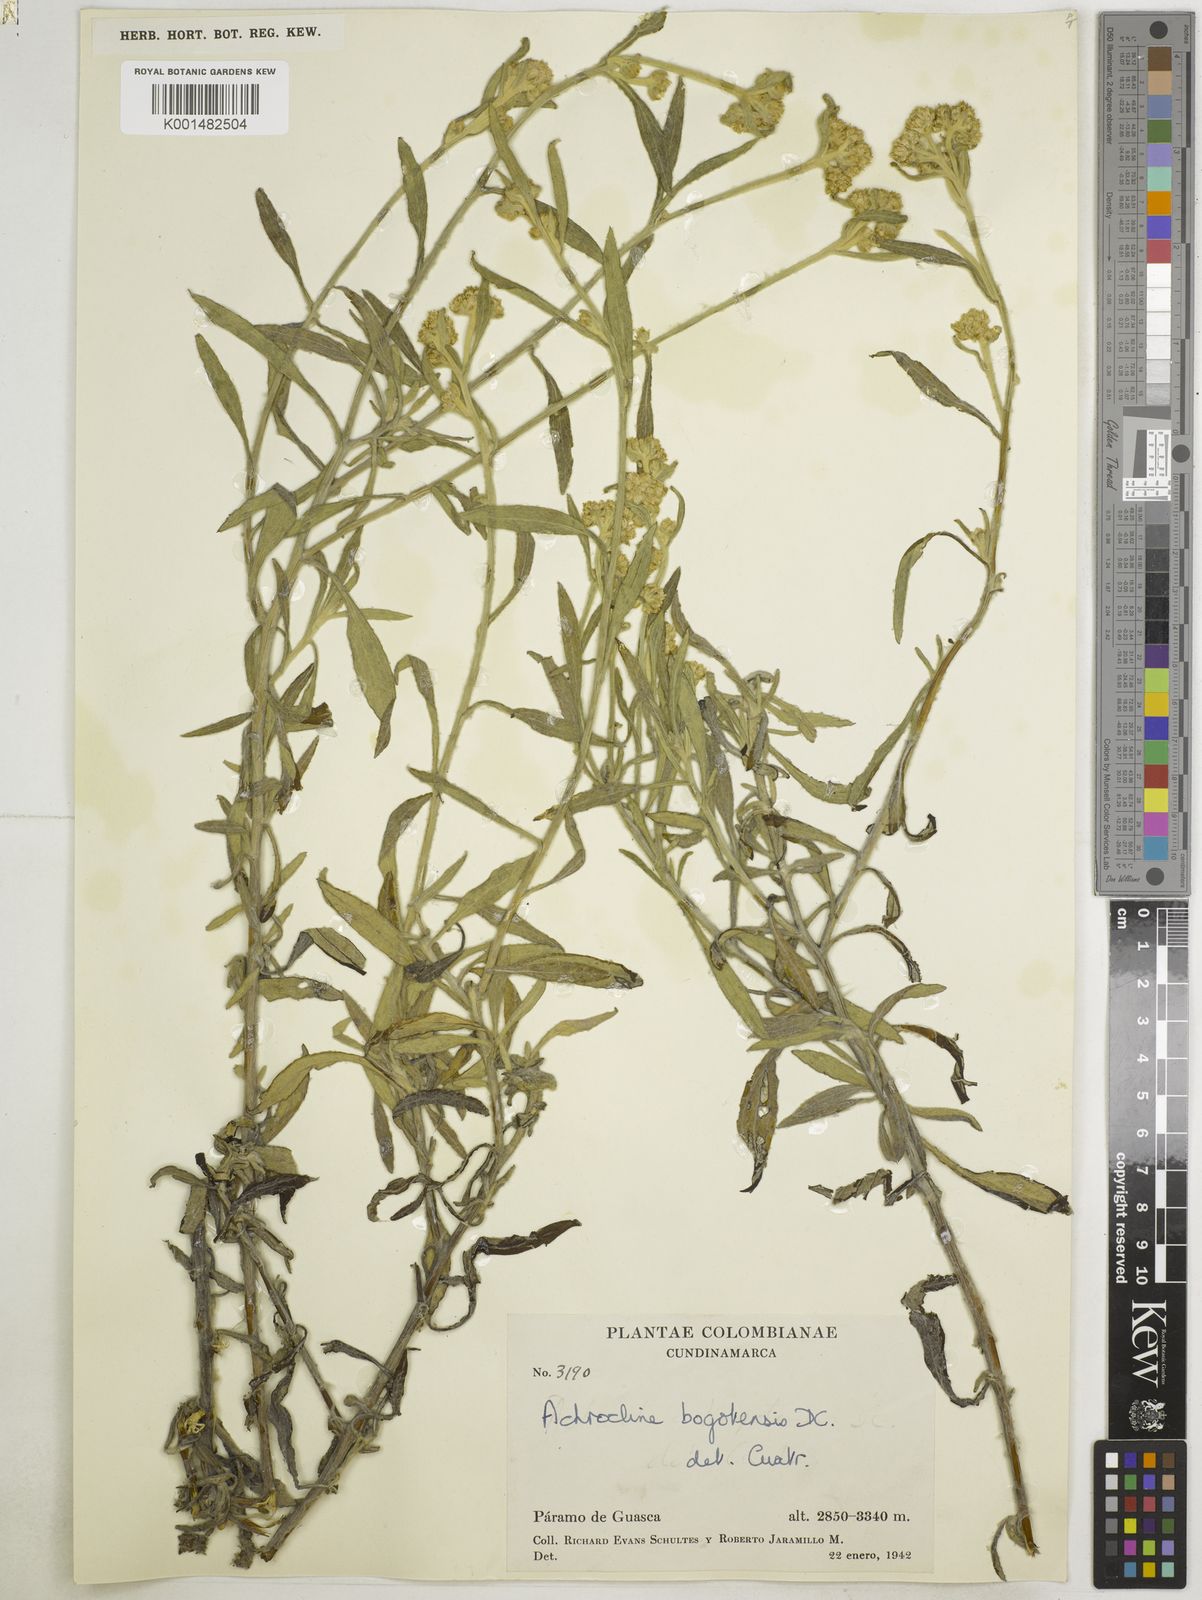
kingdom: Plantae
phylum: Tracheophyta
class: Magnoliopsida
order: Asterales
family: Asteraceae
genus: Achyrocline
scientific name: Achyrocline bogotensis
